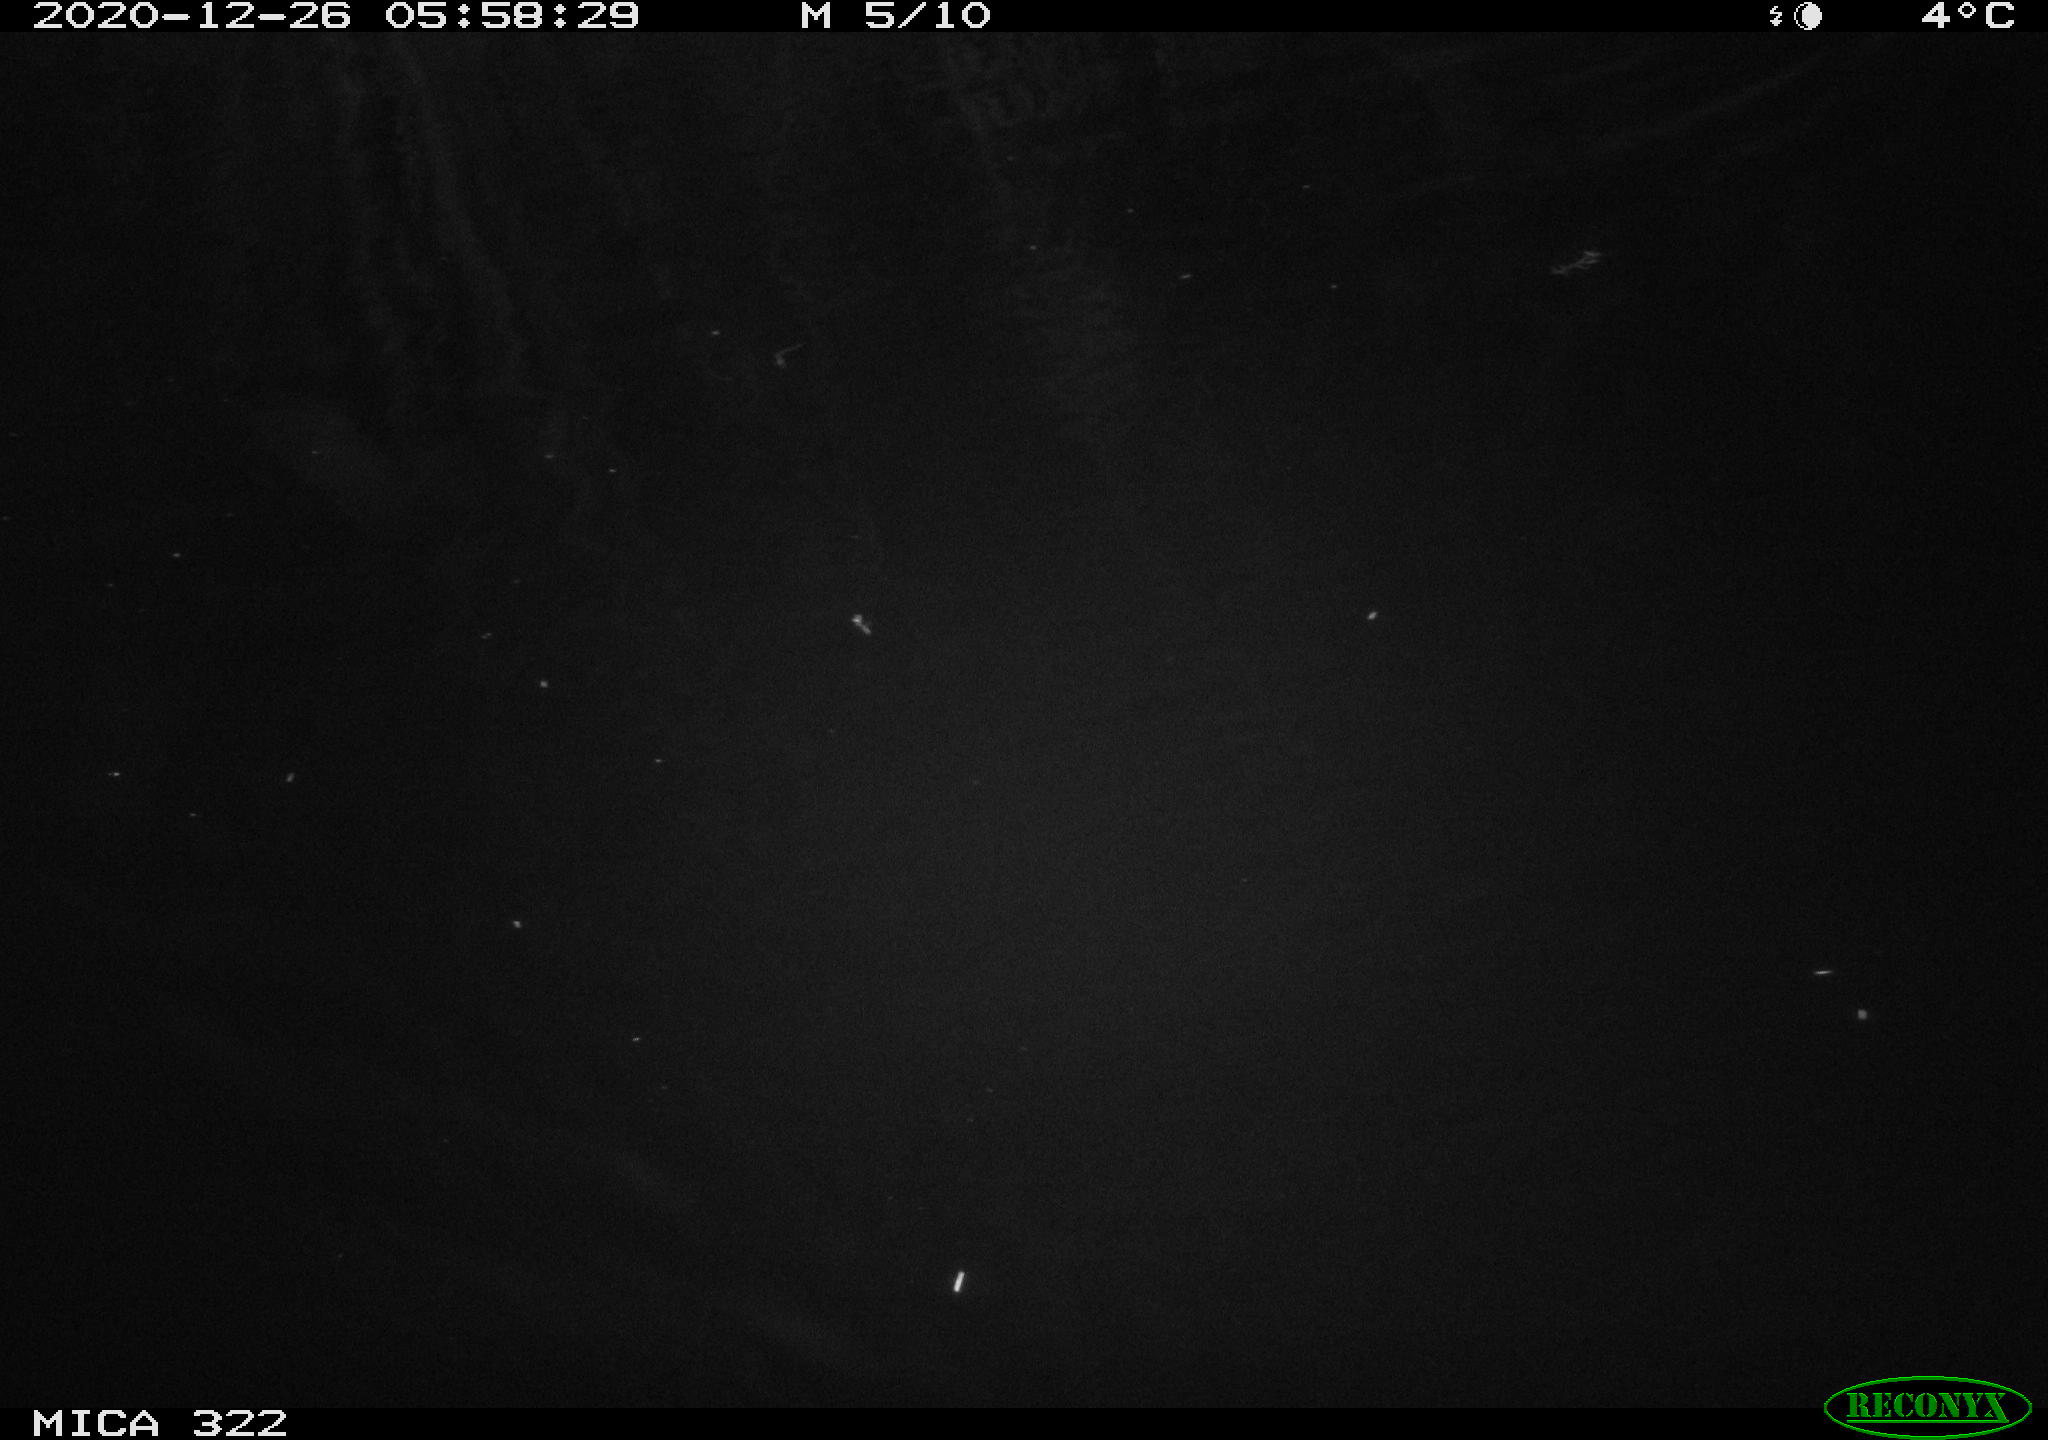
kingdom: Animalia
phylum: Chordata
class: Mammalia
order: Rodentia
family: Cricetidae
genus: Ondatra
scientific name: Ondatra zibethicus
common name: Muskrat
